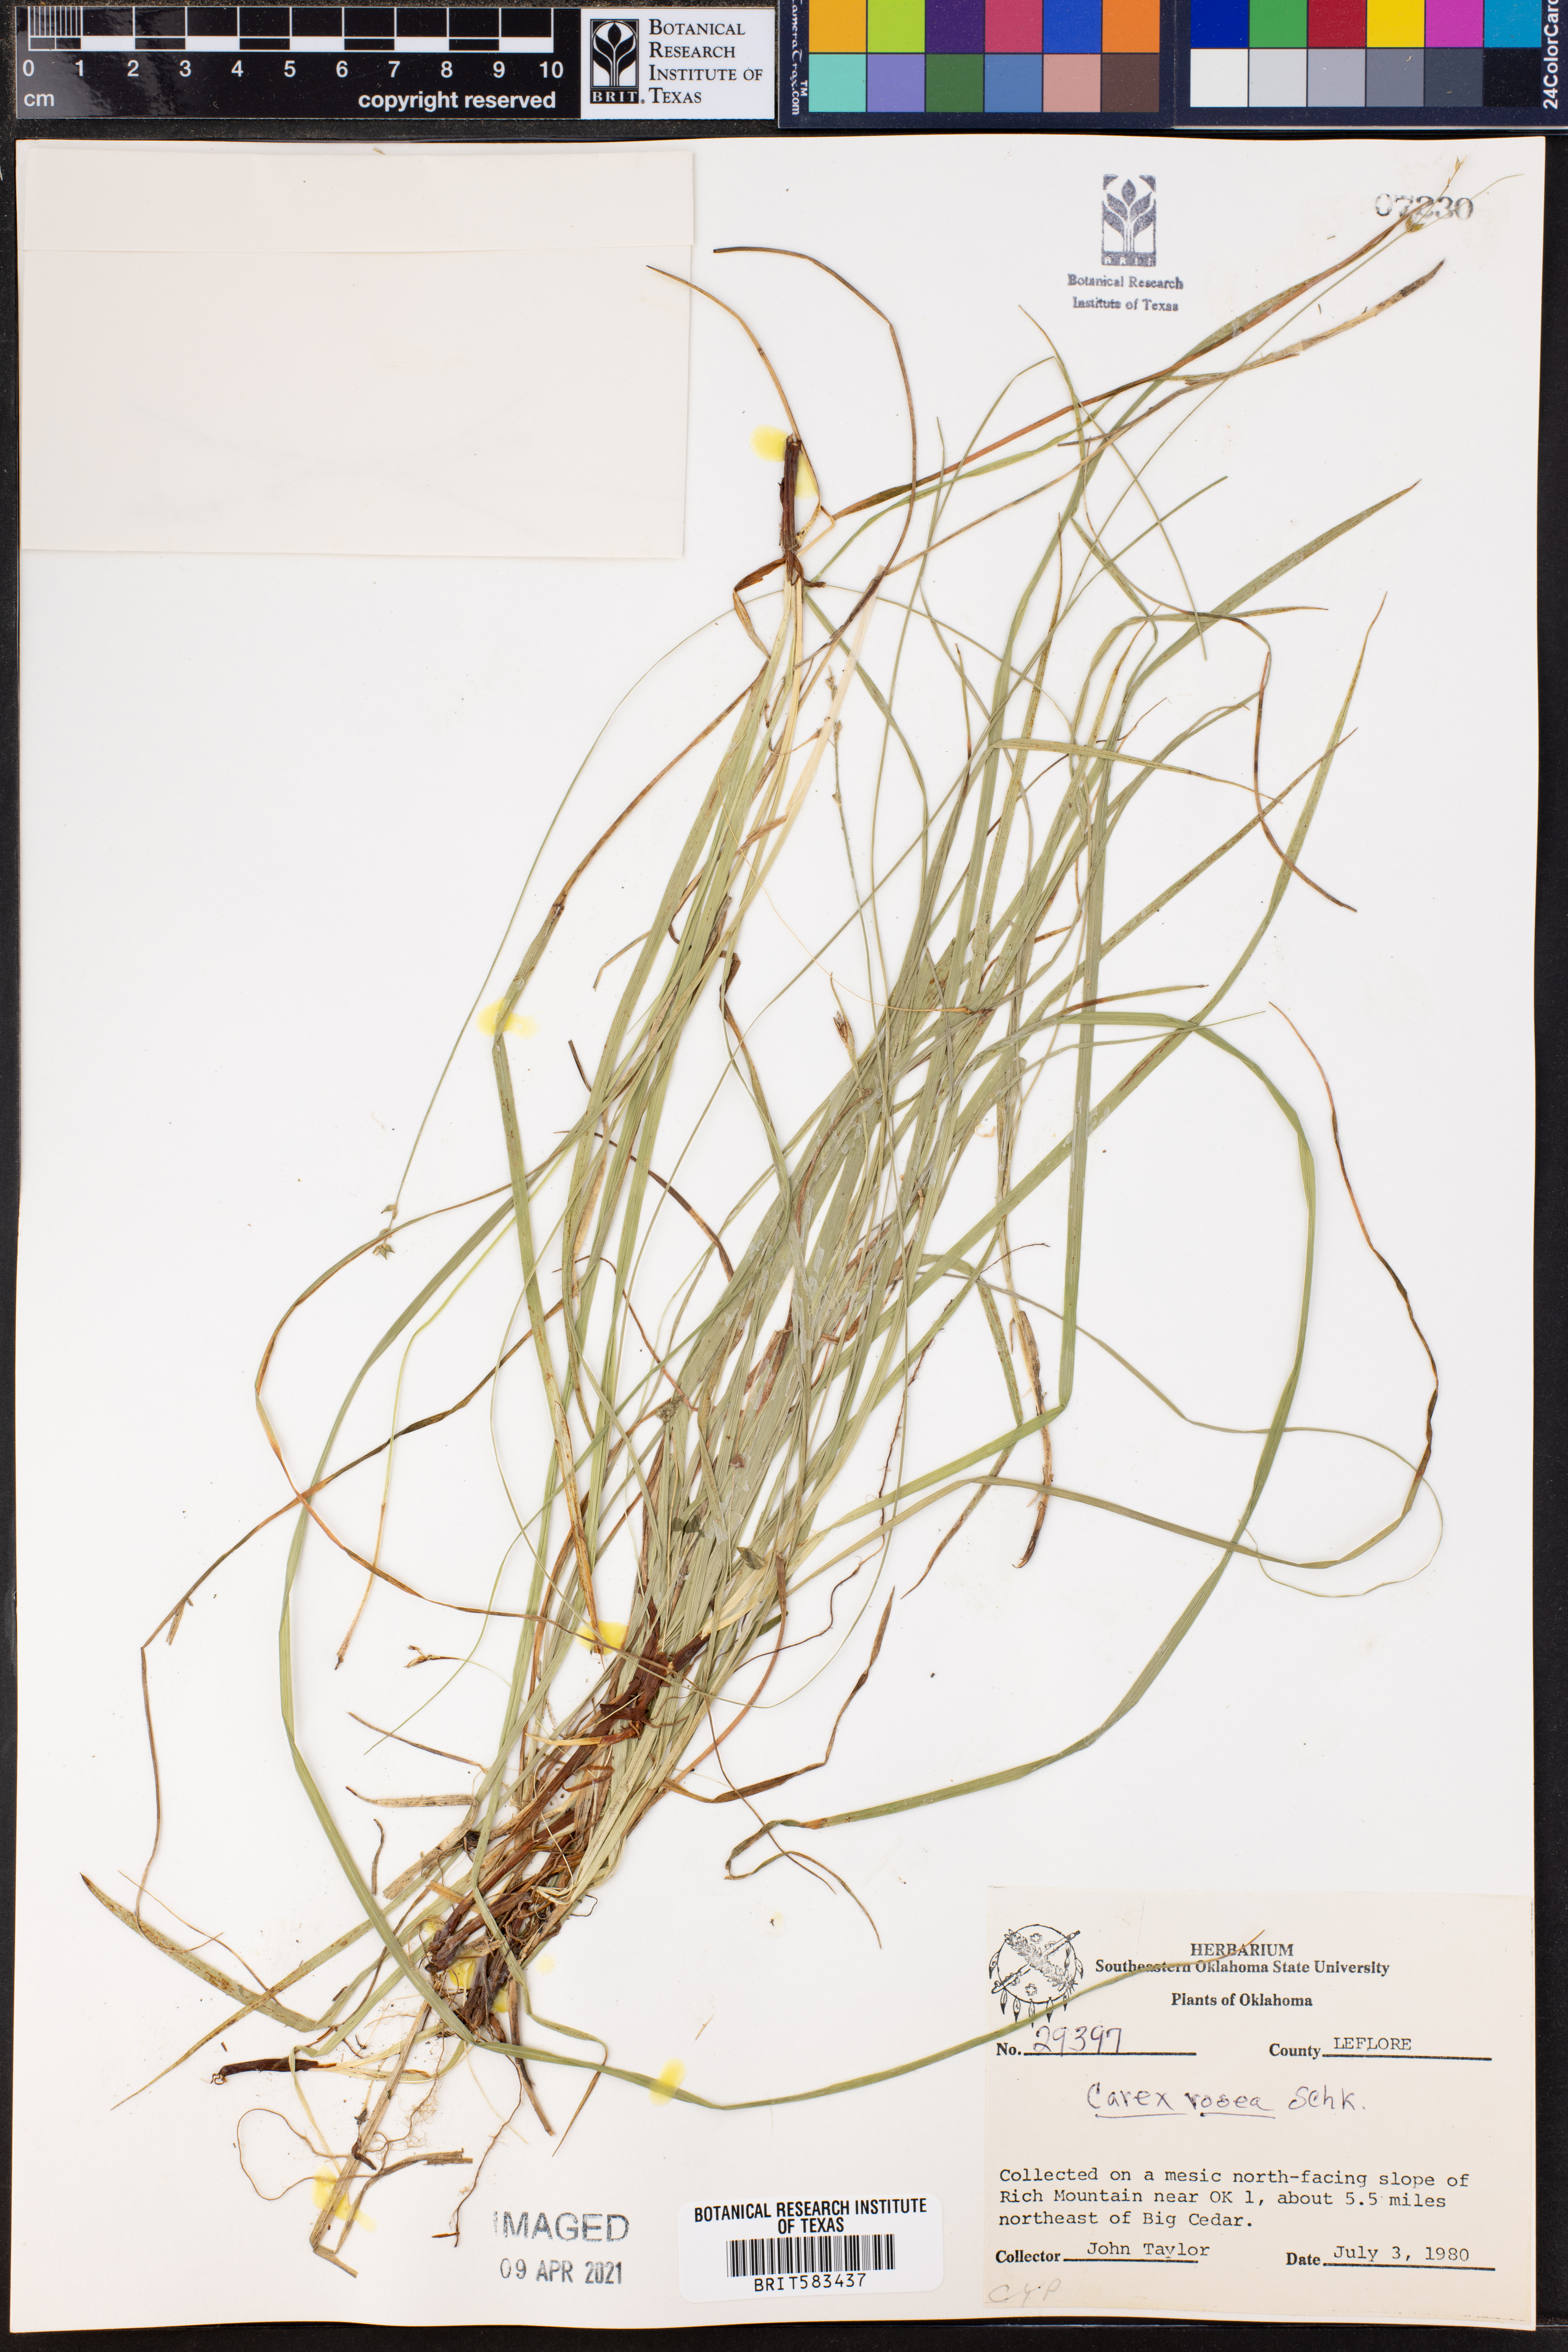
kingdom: Plantae
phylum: Tracheophyta
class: Liliopsida
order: Poales
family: Cyperaceae
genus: Carex
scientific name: Carex rosea
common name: Curly-styled wood sedge
